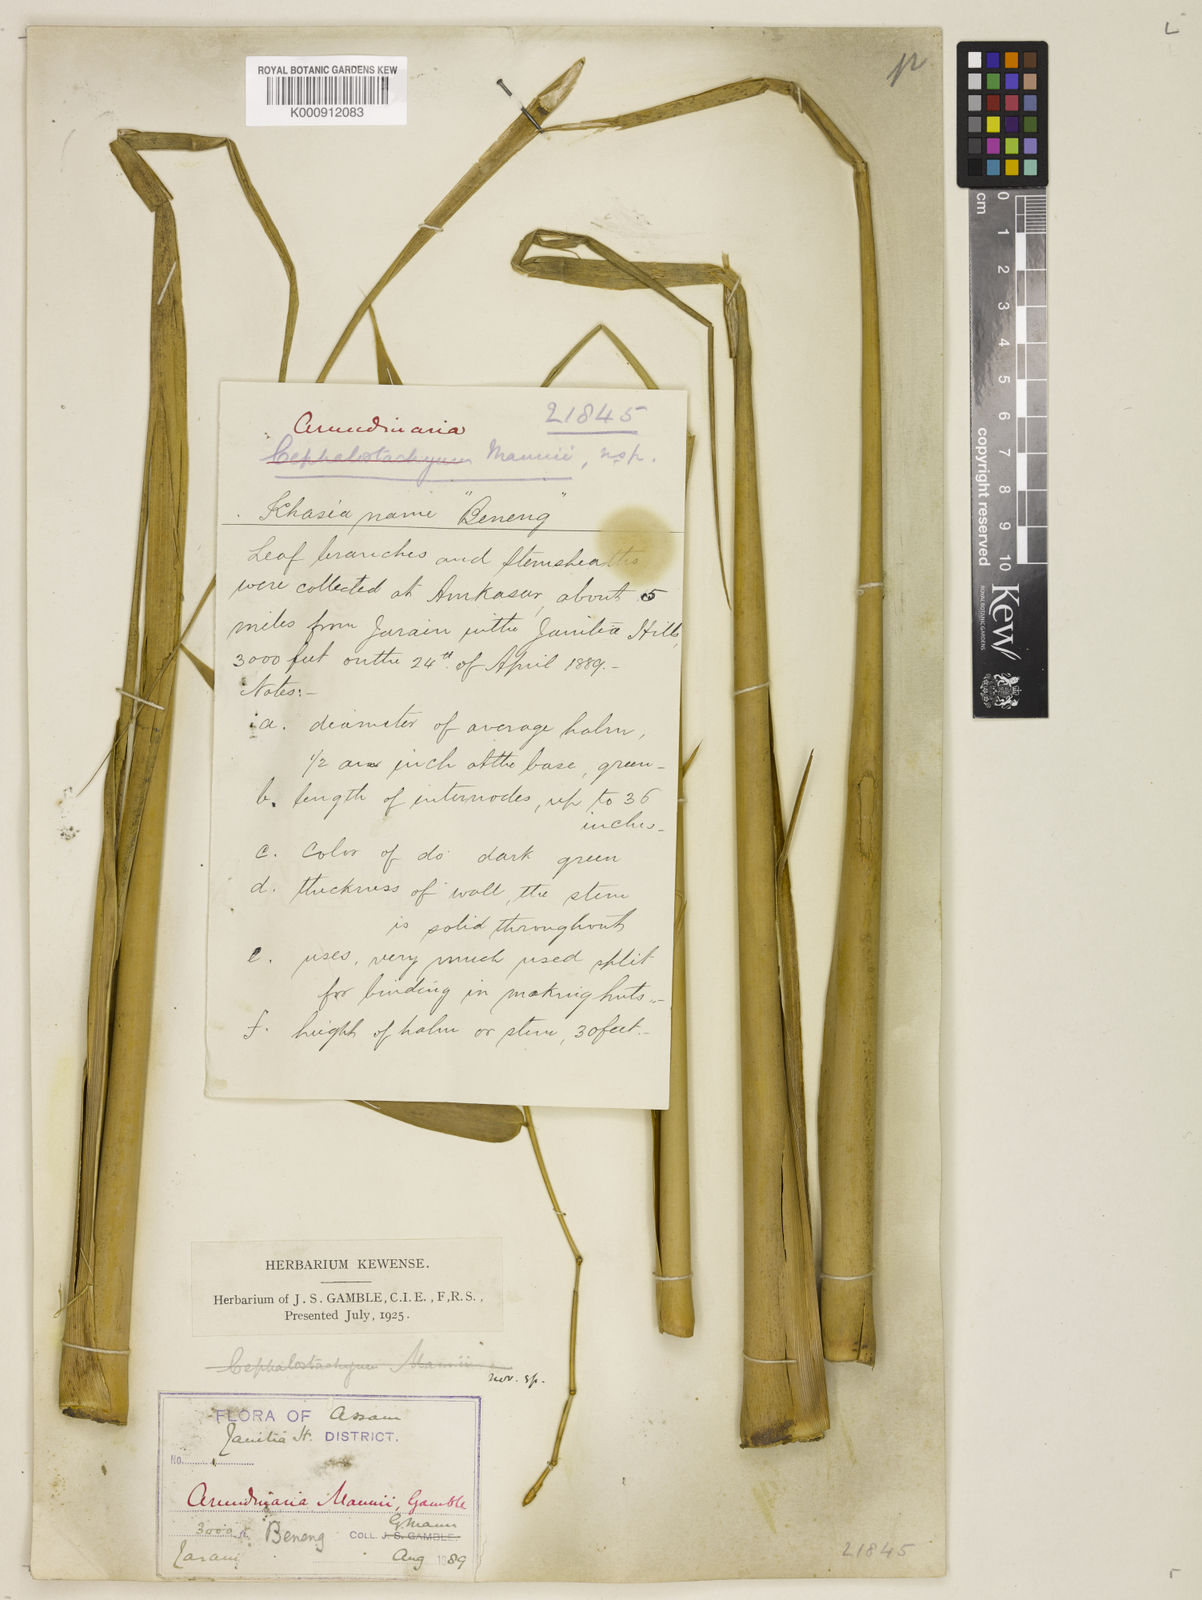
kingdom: Plantae
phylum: Tracheophyta
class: Liliopsida
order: Poales
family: Poaceae
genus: Cephalostachyum
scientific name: Cephalostachyum mannii
